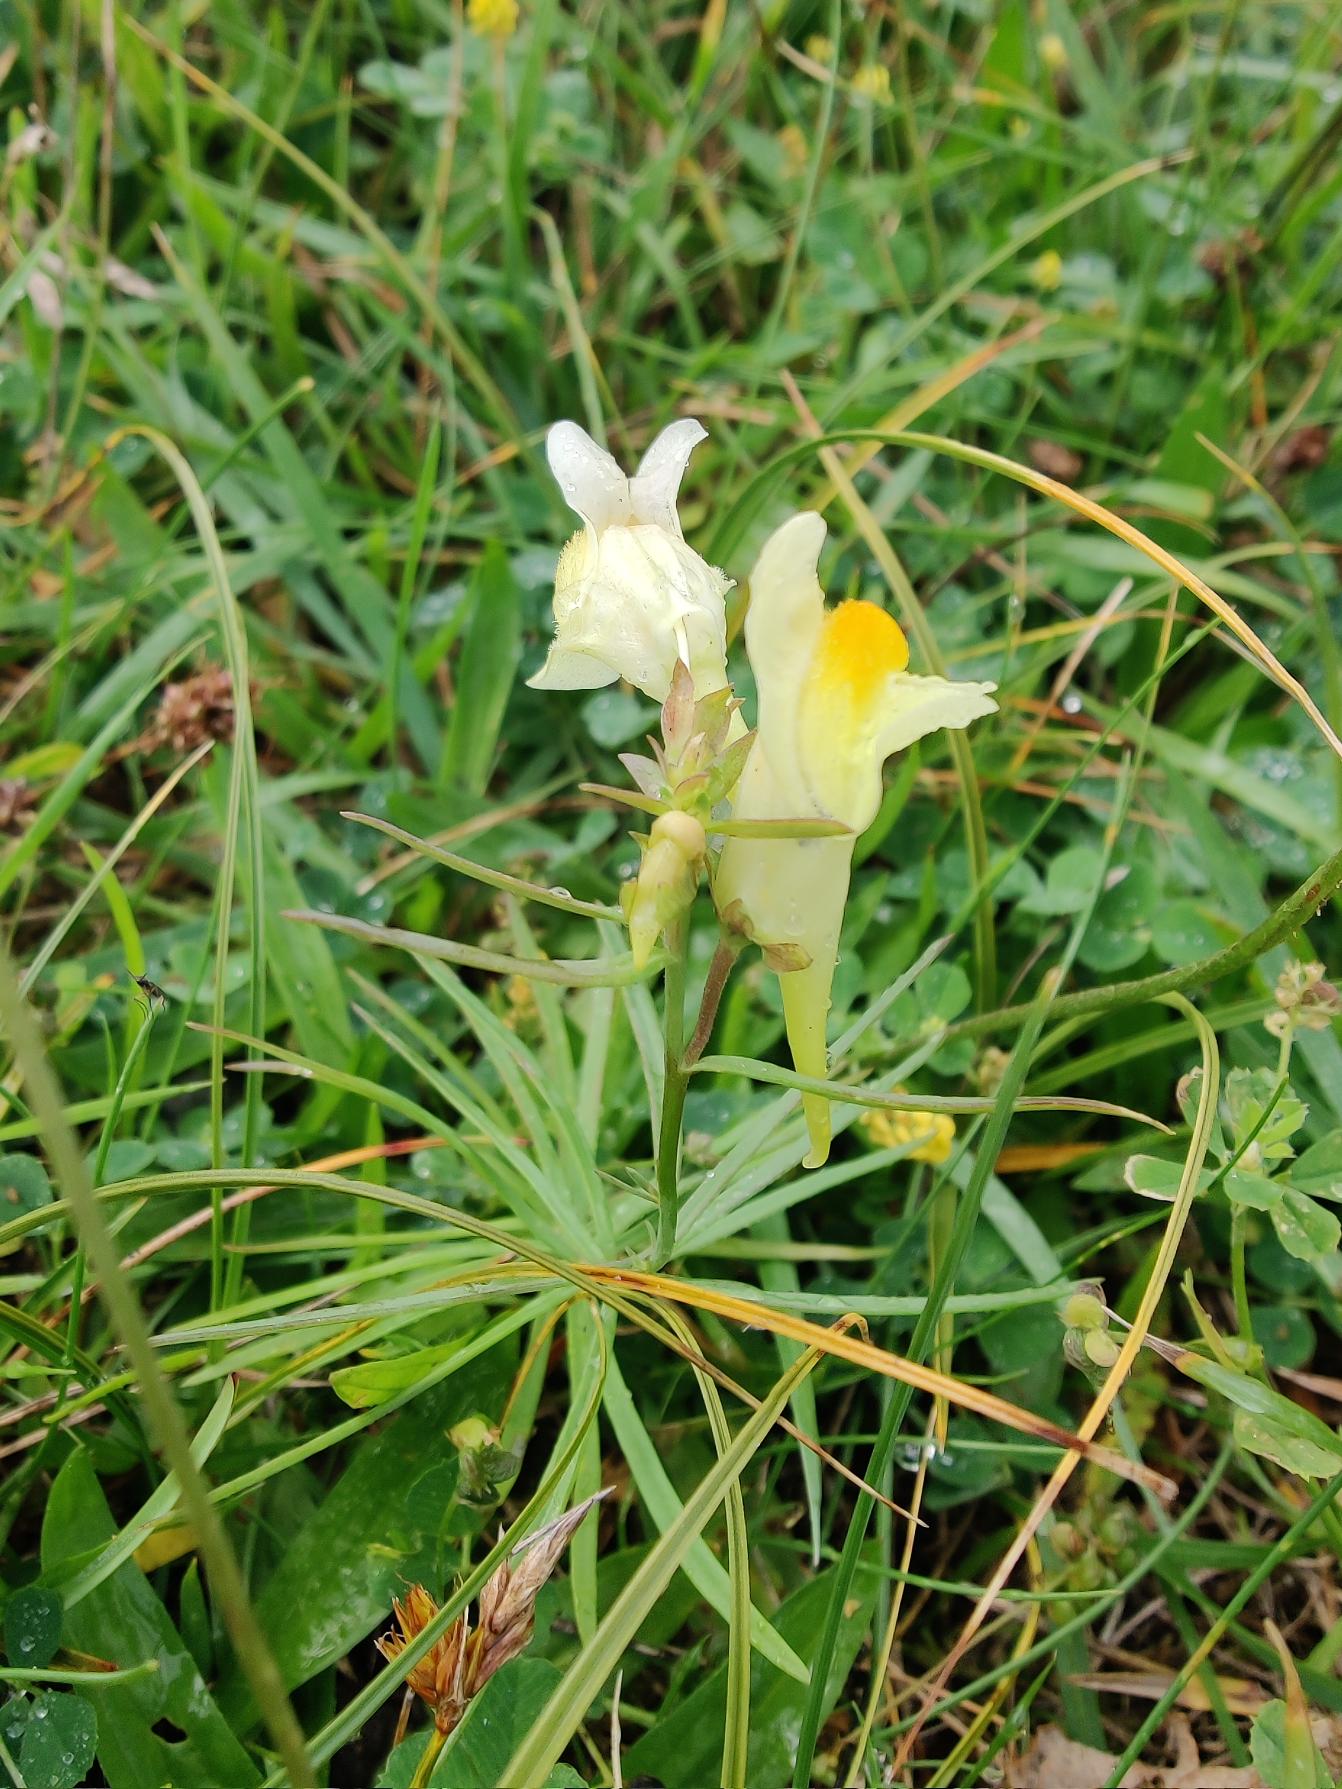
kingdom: Plantae
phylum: Tracheophyta
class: Magnoliopsida
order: Lamiales
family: Plantaginaceae
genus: Linaria
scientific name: Linaria vulgaris
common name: Almindelig torskemund
